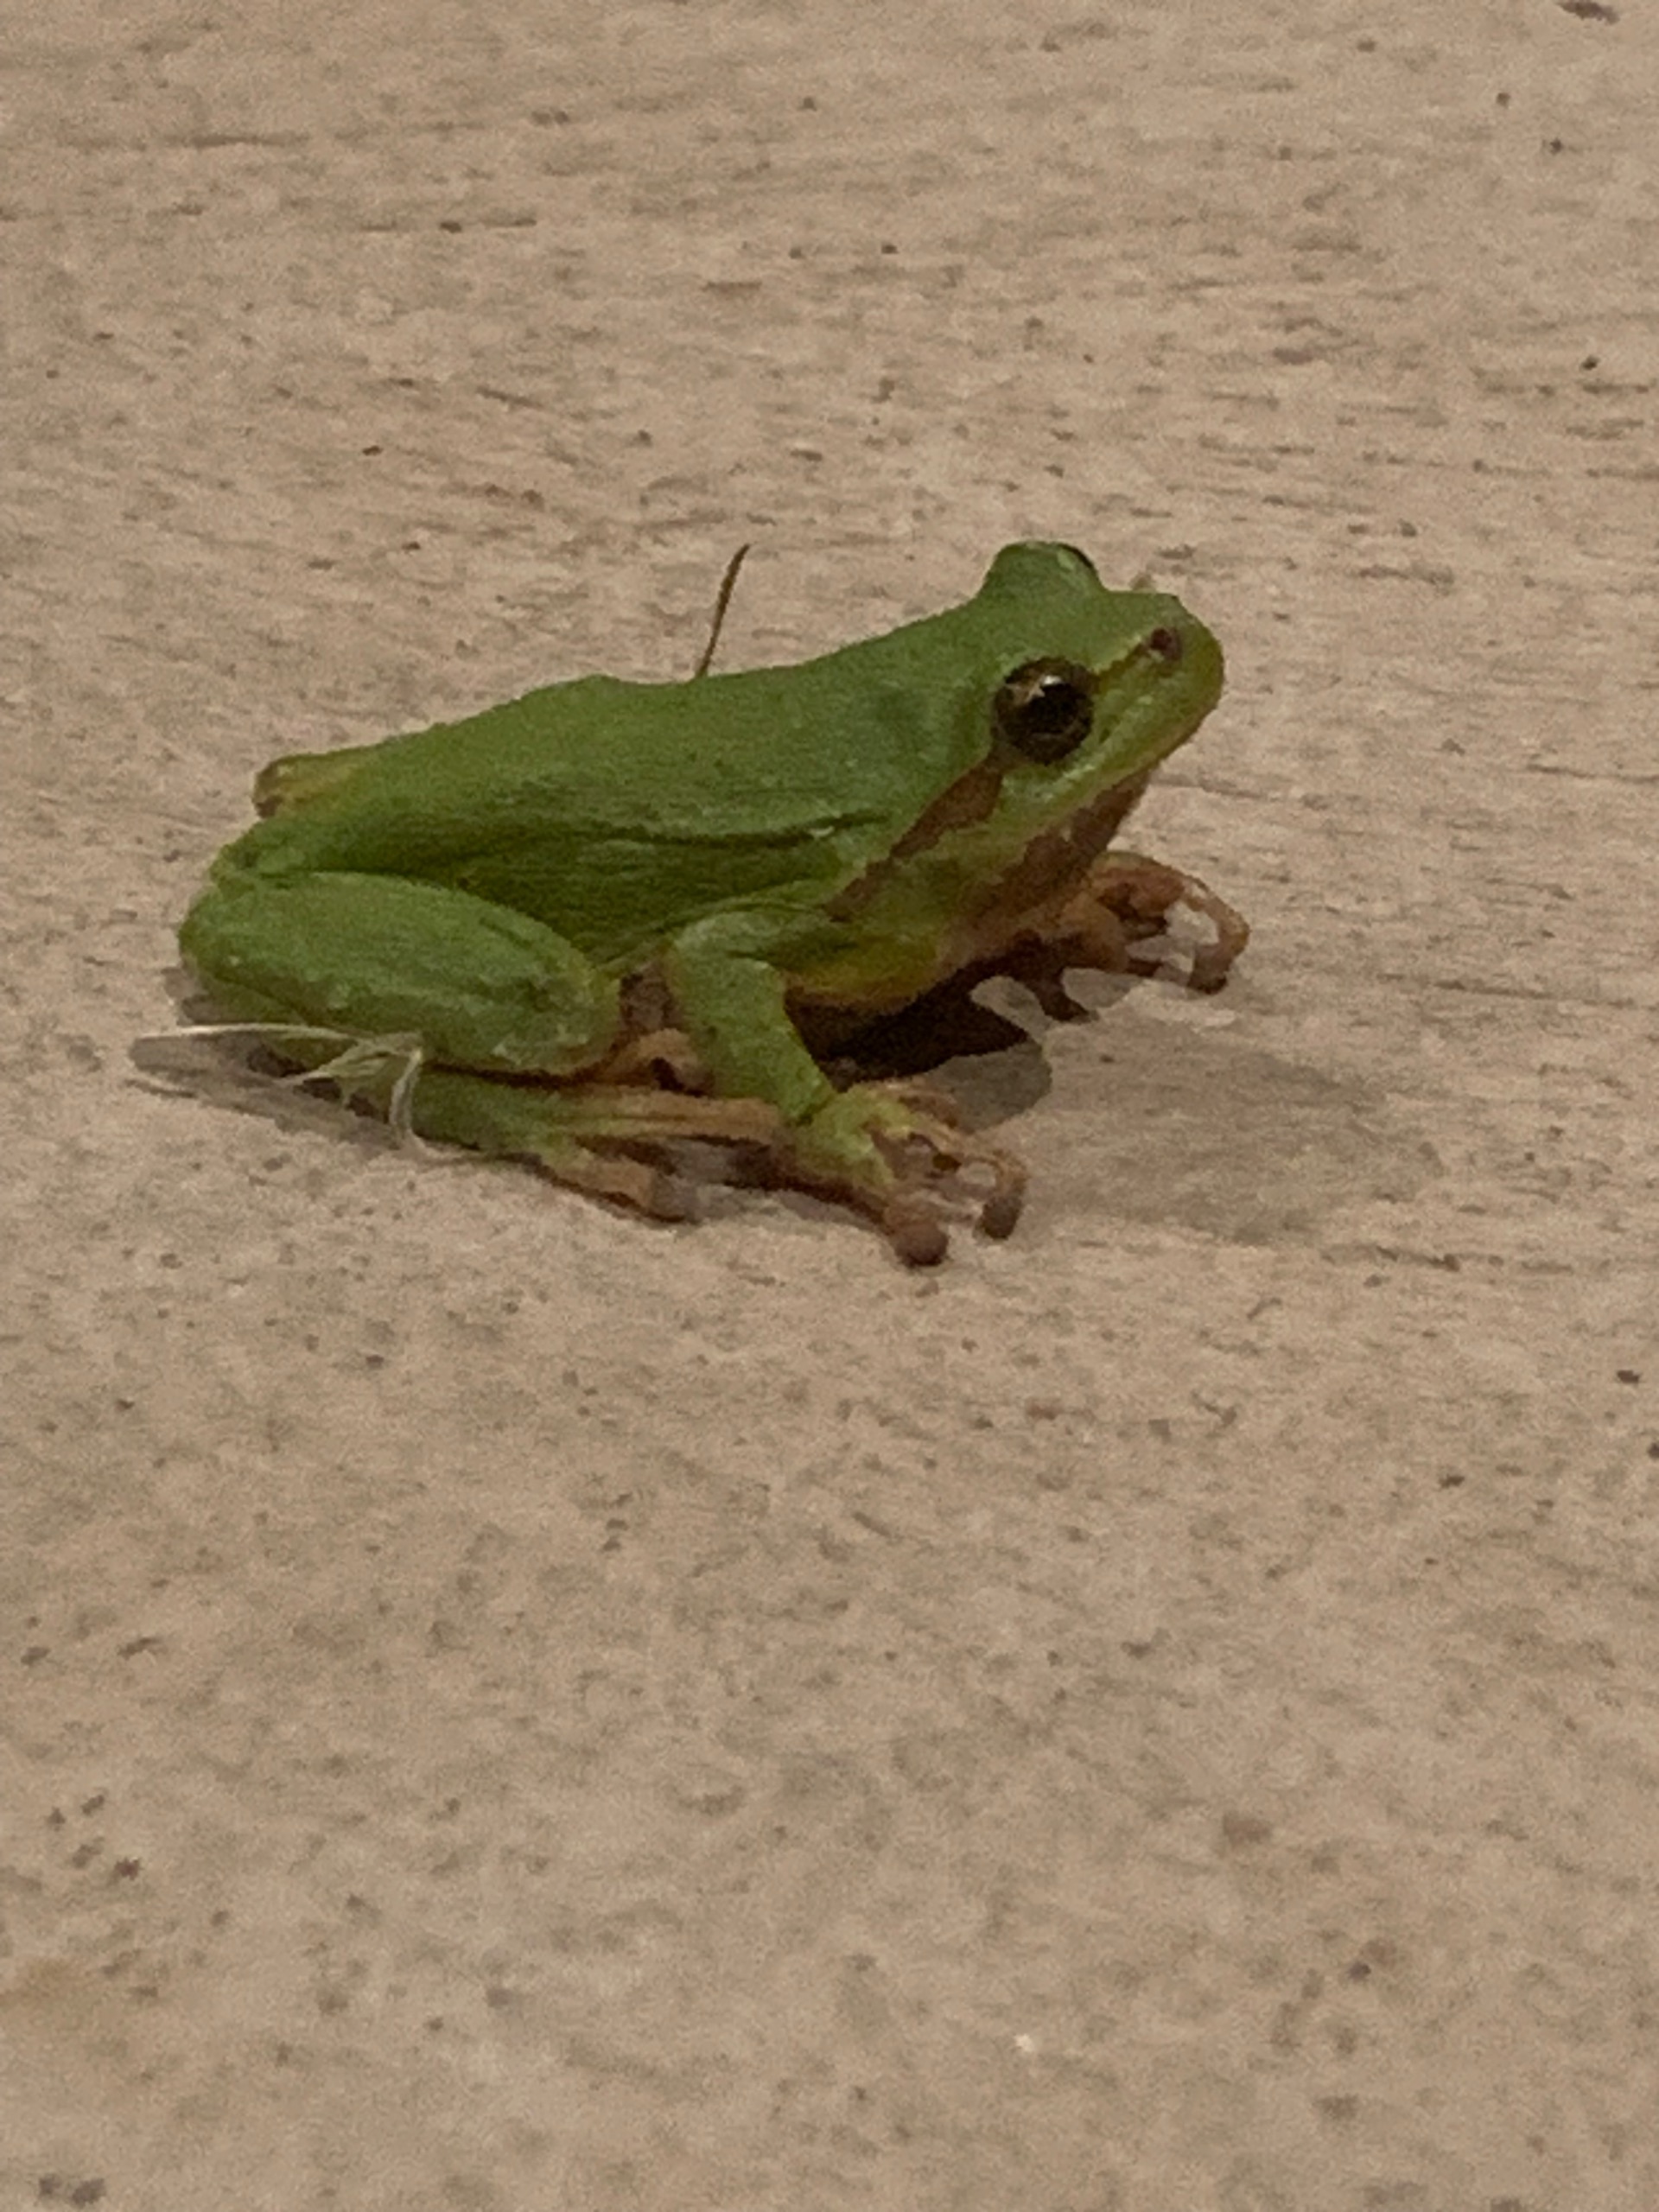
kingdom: Animalia
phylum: Chordata
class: Amphibia
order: Anura
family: Hylidae
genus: Hyla
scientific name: Hyla arborea
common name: Løvfrø
